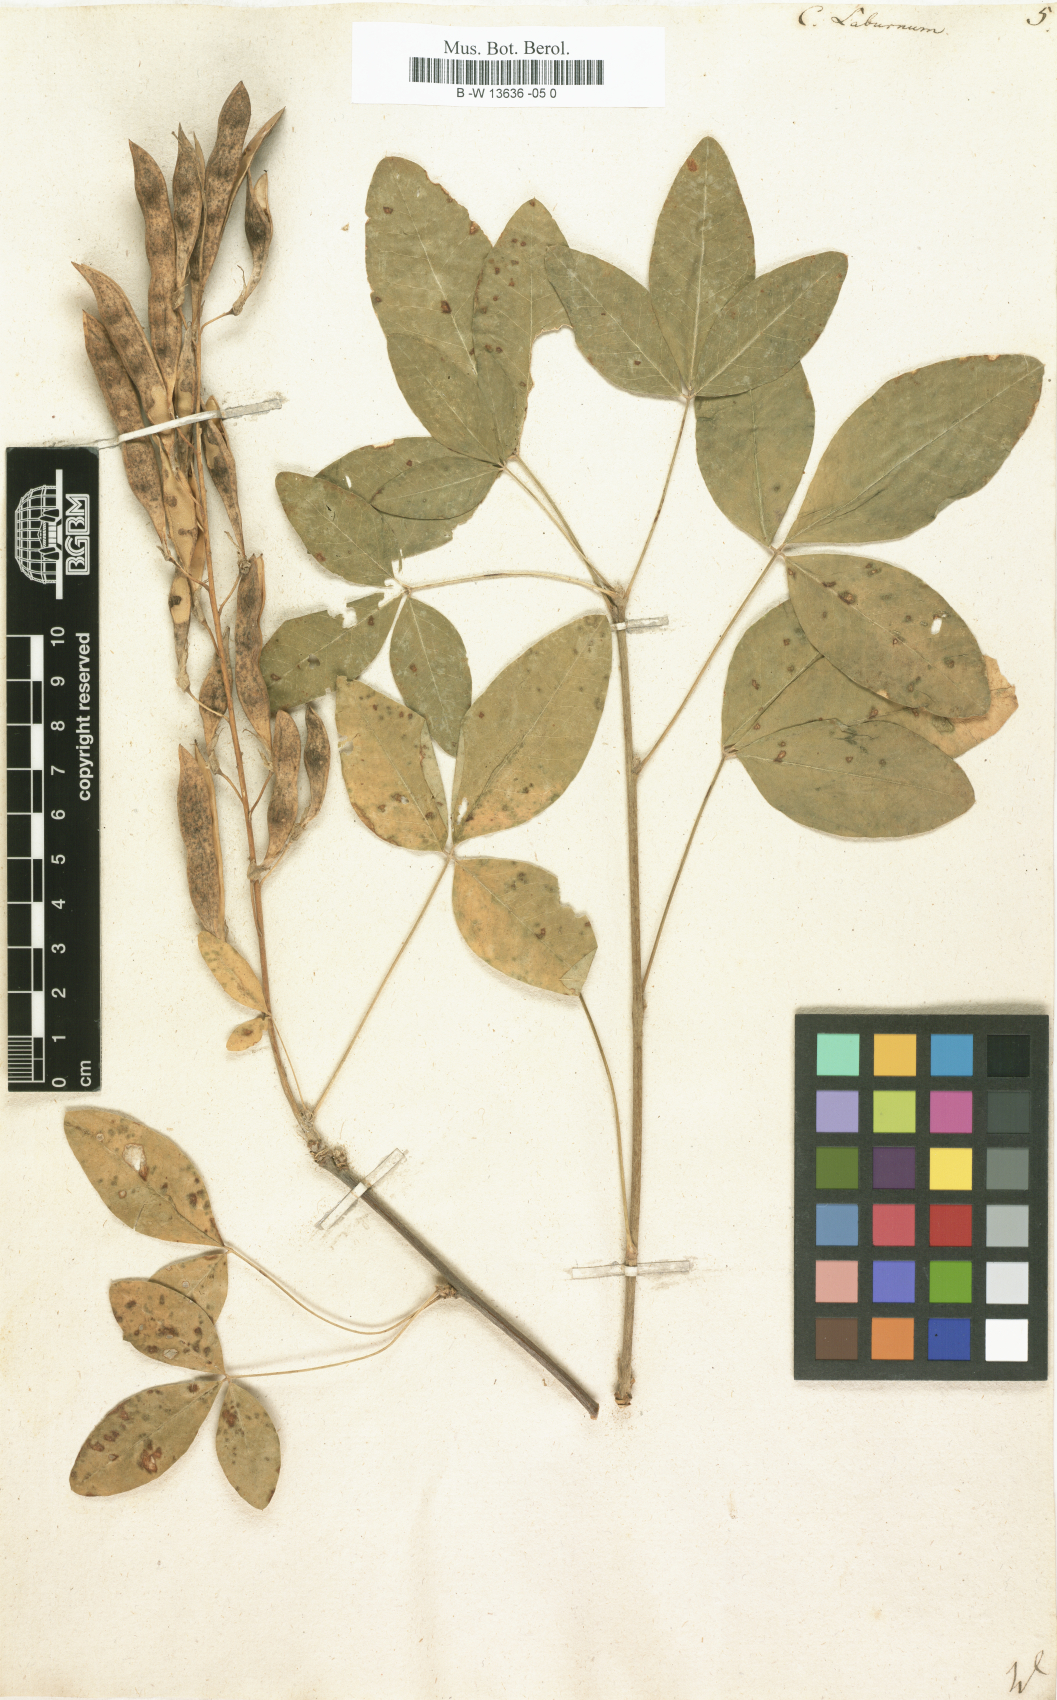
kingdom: Plantae
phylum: Tracheophyta
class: Magnoliopsida
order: Fabales
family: Fabaceae
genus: Laburnum
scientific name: Laburnum anagyroides
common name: Laburnum
